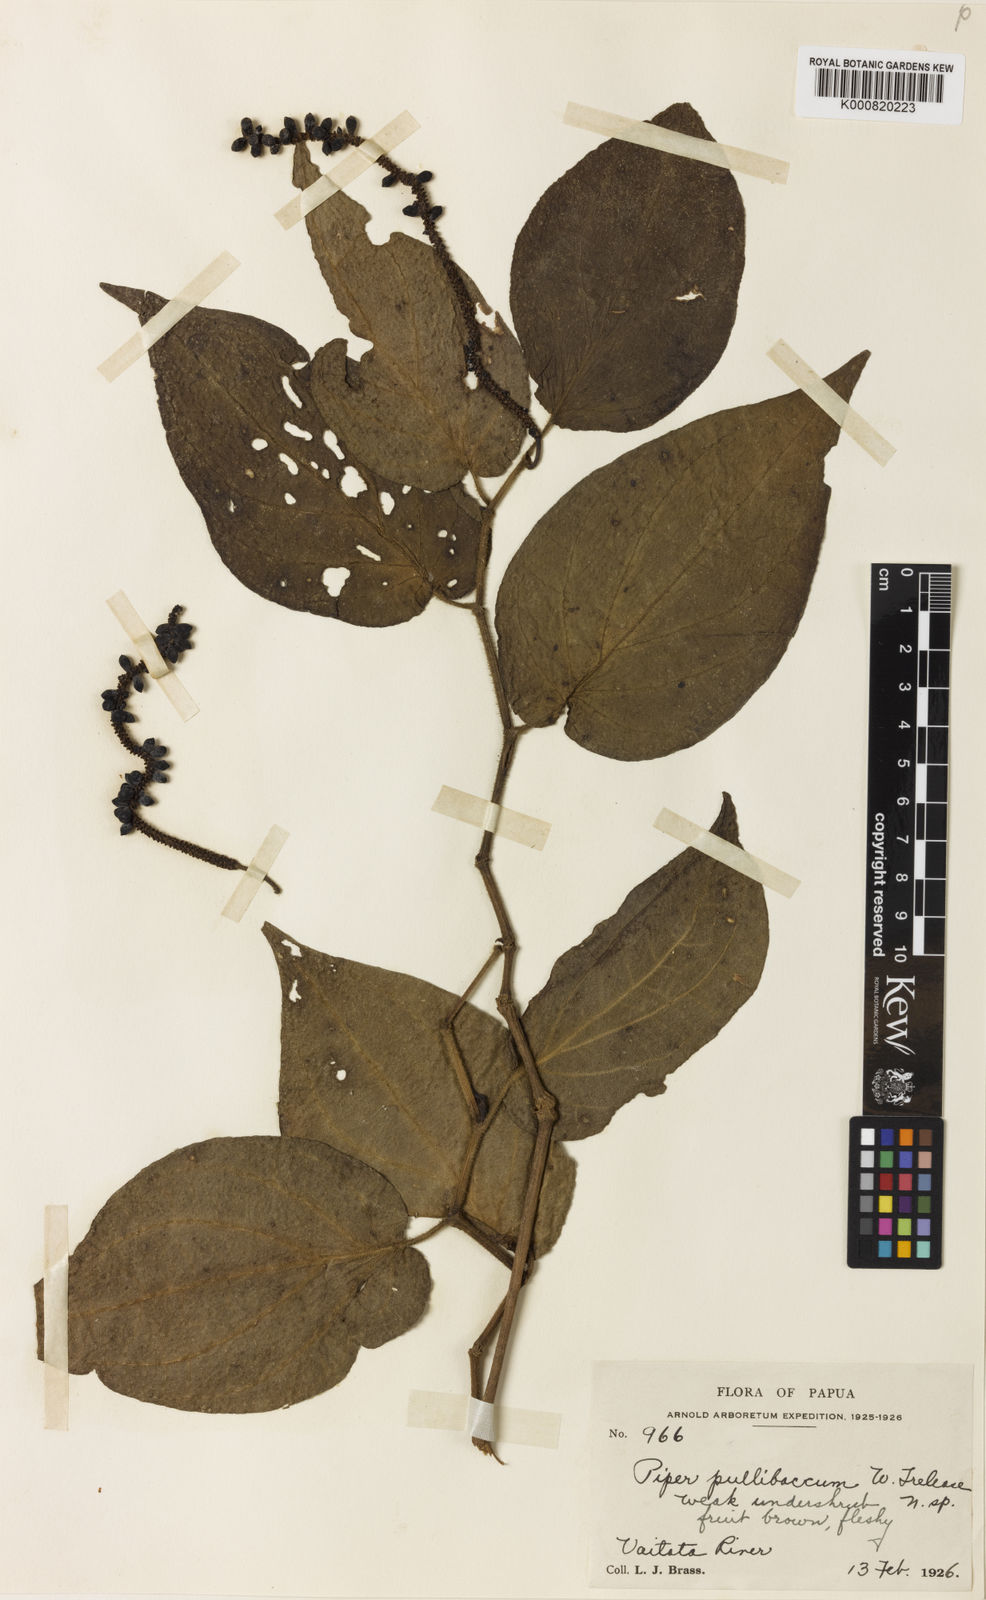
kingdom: Plantae
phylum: Tracheophyta
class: Magnoliopsida
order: Piperales
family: Piperaceae
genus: Piper
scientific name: Piper pullibaccum
